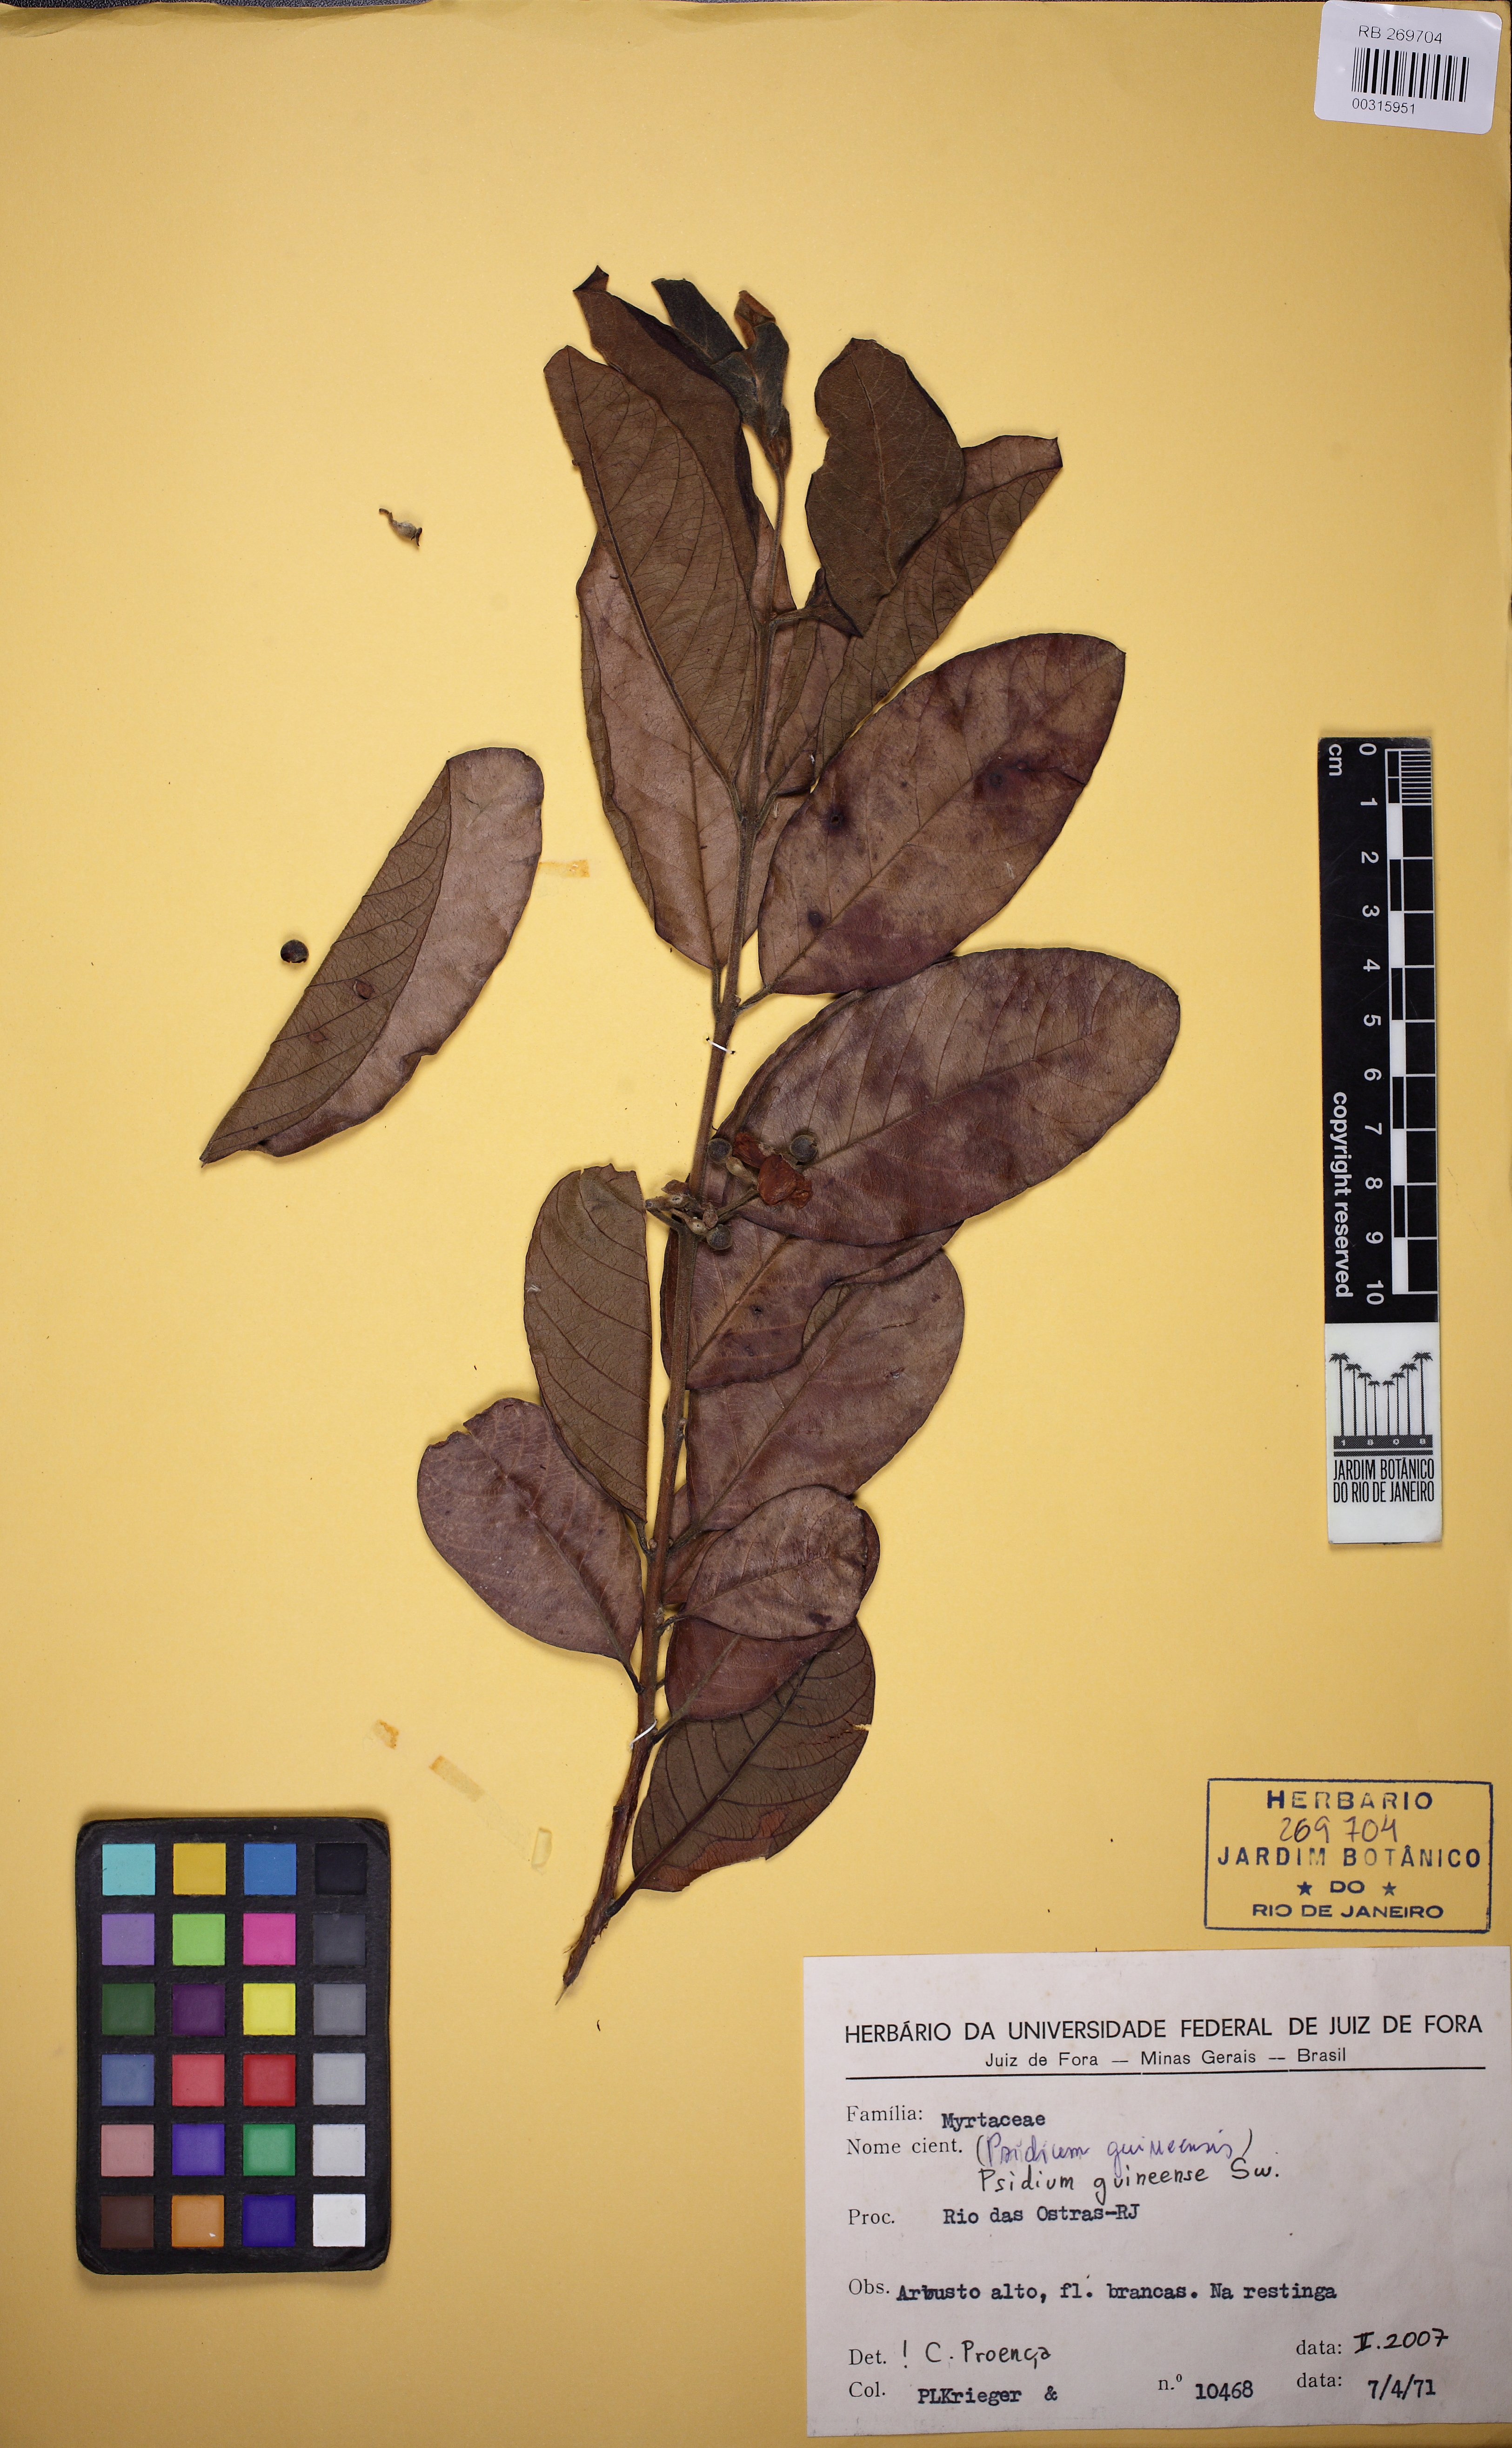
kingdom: Plantae
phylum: Tracheophyta
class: Magnoliopsida
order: Myrtales
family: Myrtaceae
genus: Psidium
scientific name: Psidium guineense
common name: Brazilian guava
